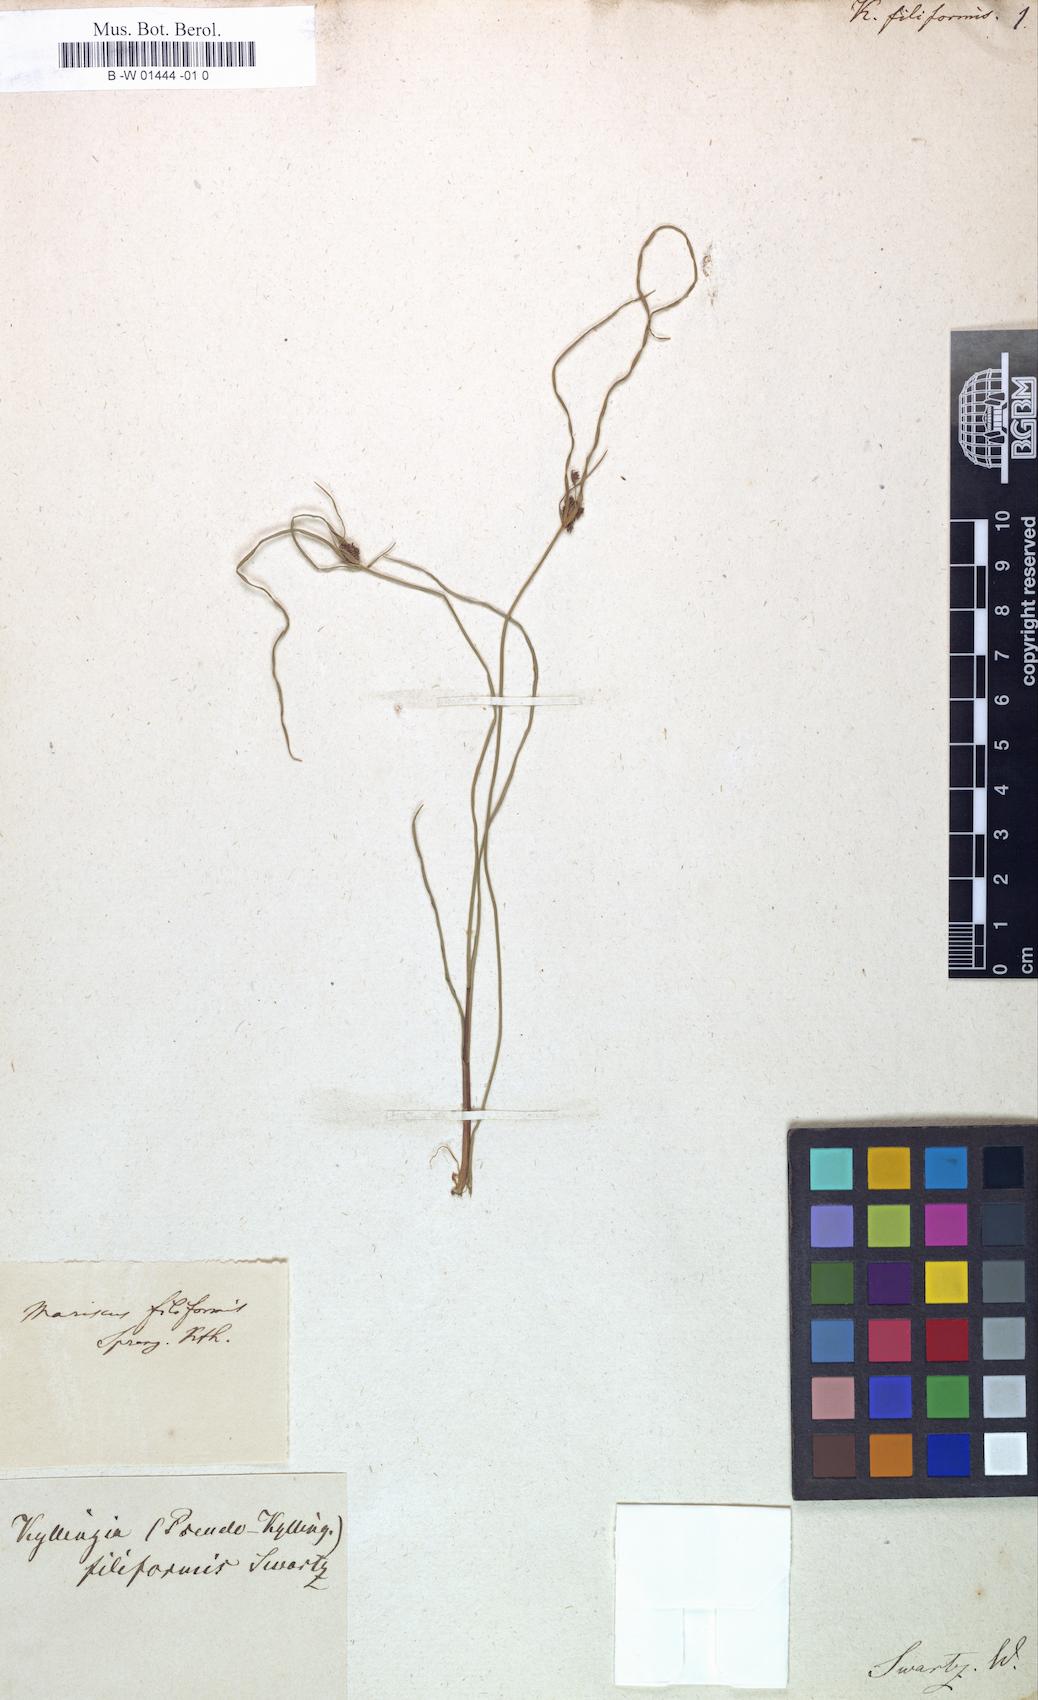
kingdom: Plantae
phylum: Tracheophyta
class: Liliopsida
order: Poales
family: Cyperaceae
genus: Cyperus
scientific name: Cyperus swartzii
